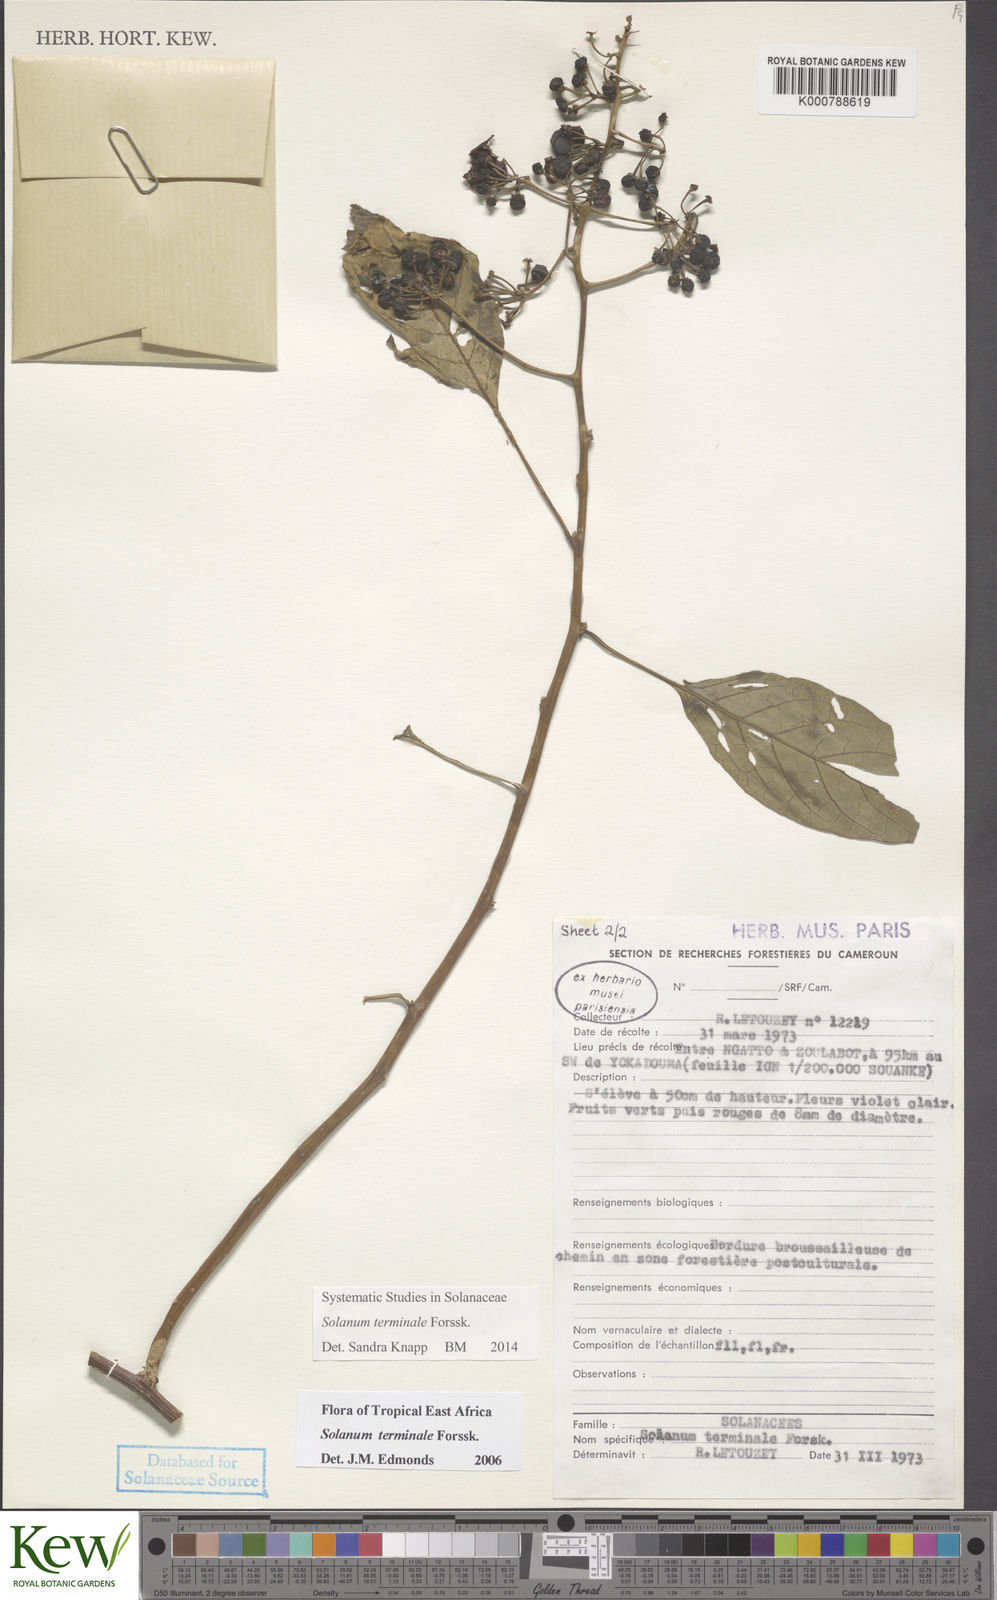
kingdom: Plantae
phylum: Tracheophyta
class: Magnoliopsida
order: Solanales
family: Solanaceae
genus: Solanum
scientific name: Solanum terminale
